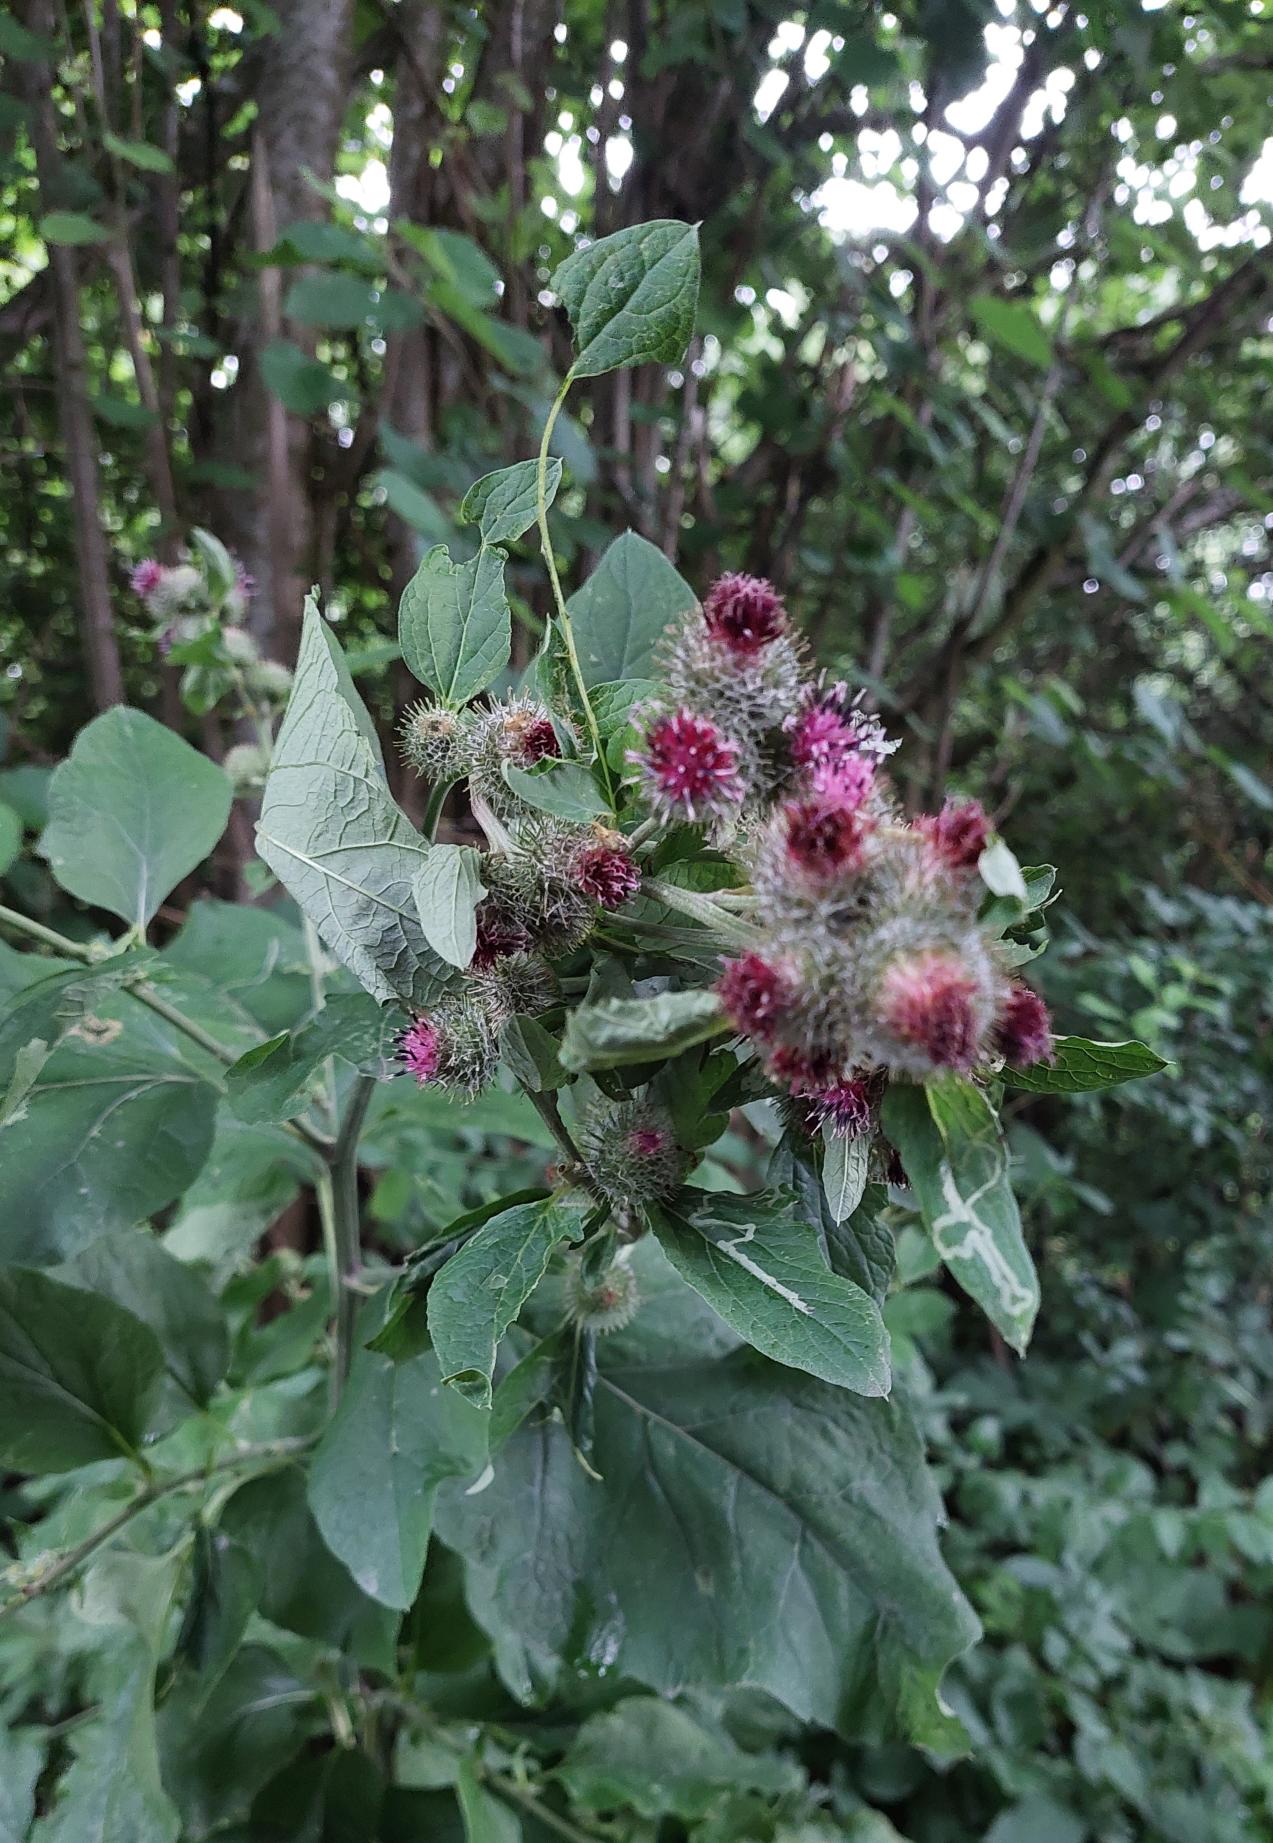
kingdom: Plantae
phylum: Tracheophyta
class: Magnoliopsida
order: Asterales
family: Asteraceae
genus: Arctium
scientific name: Arctium tomentosum
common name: Filtet burre
